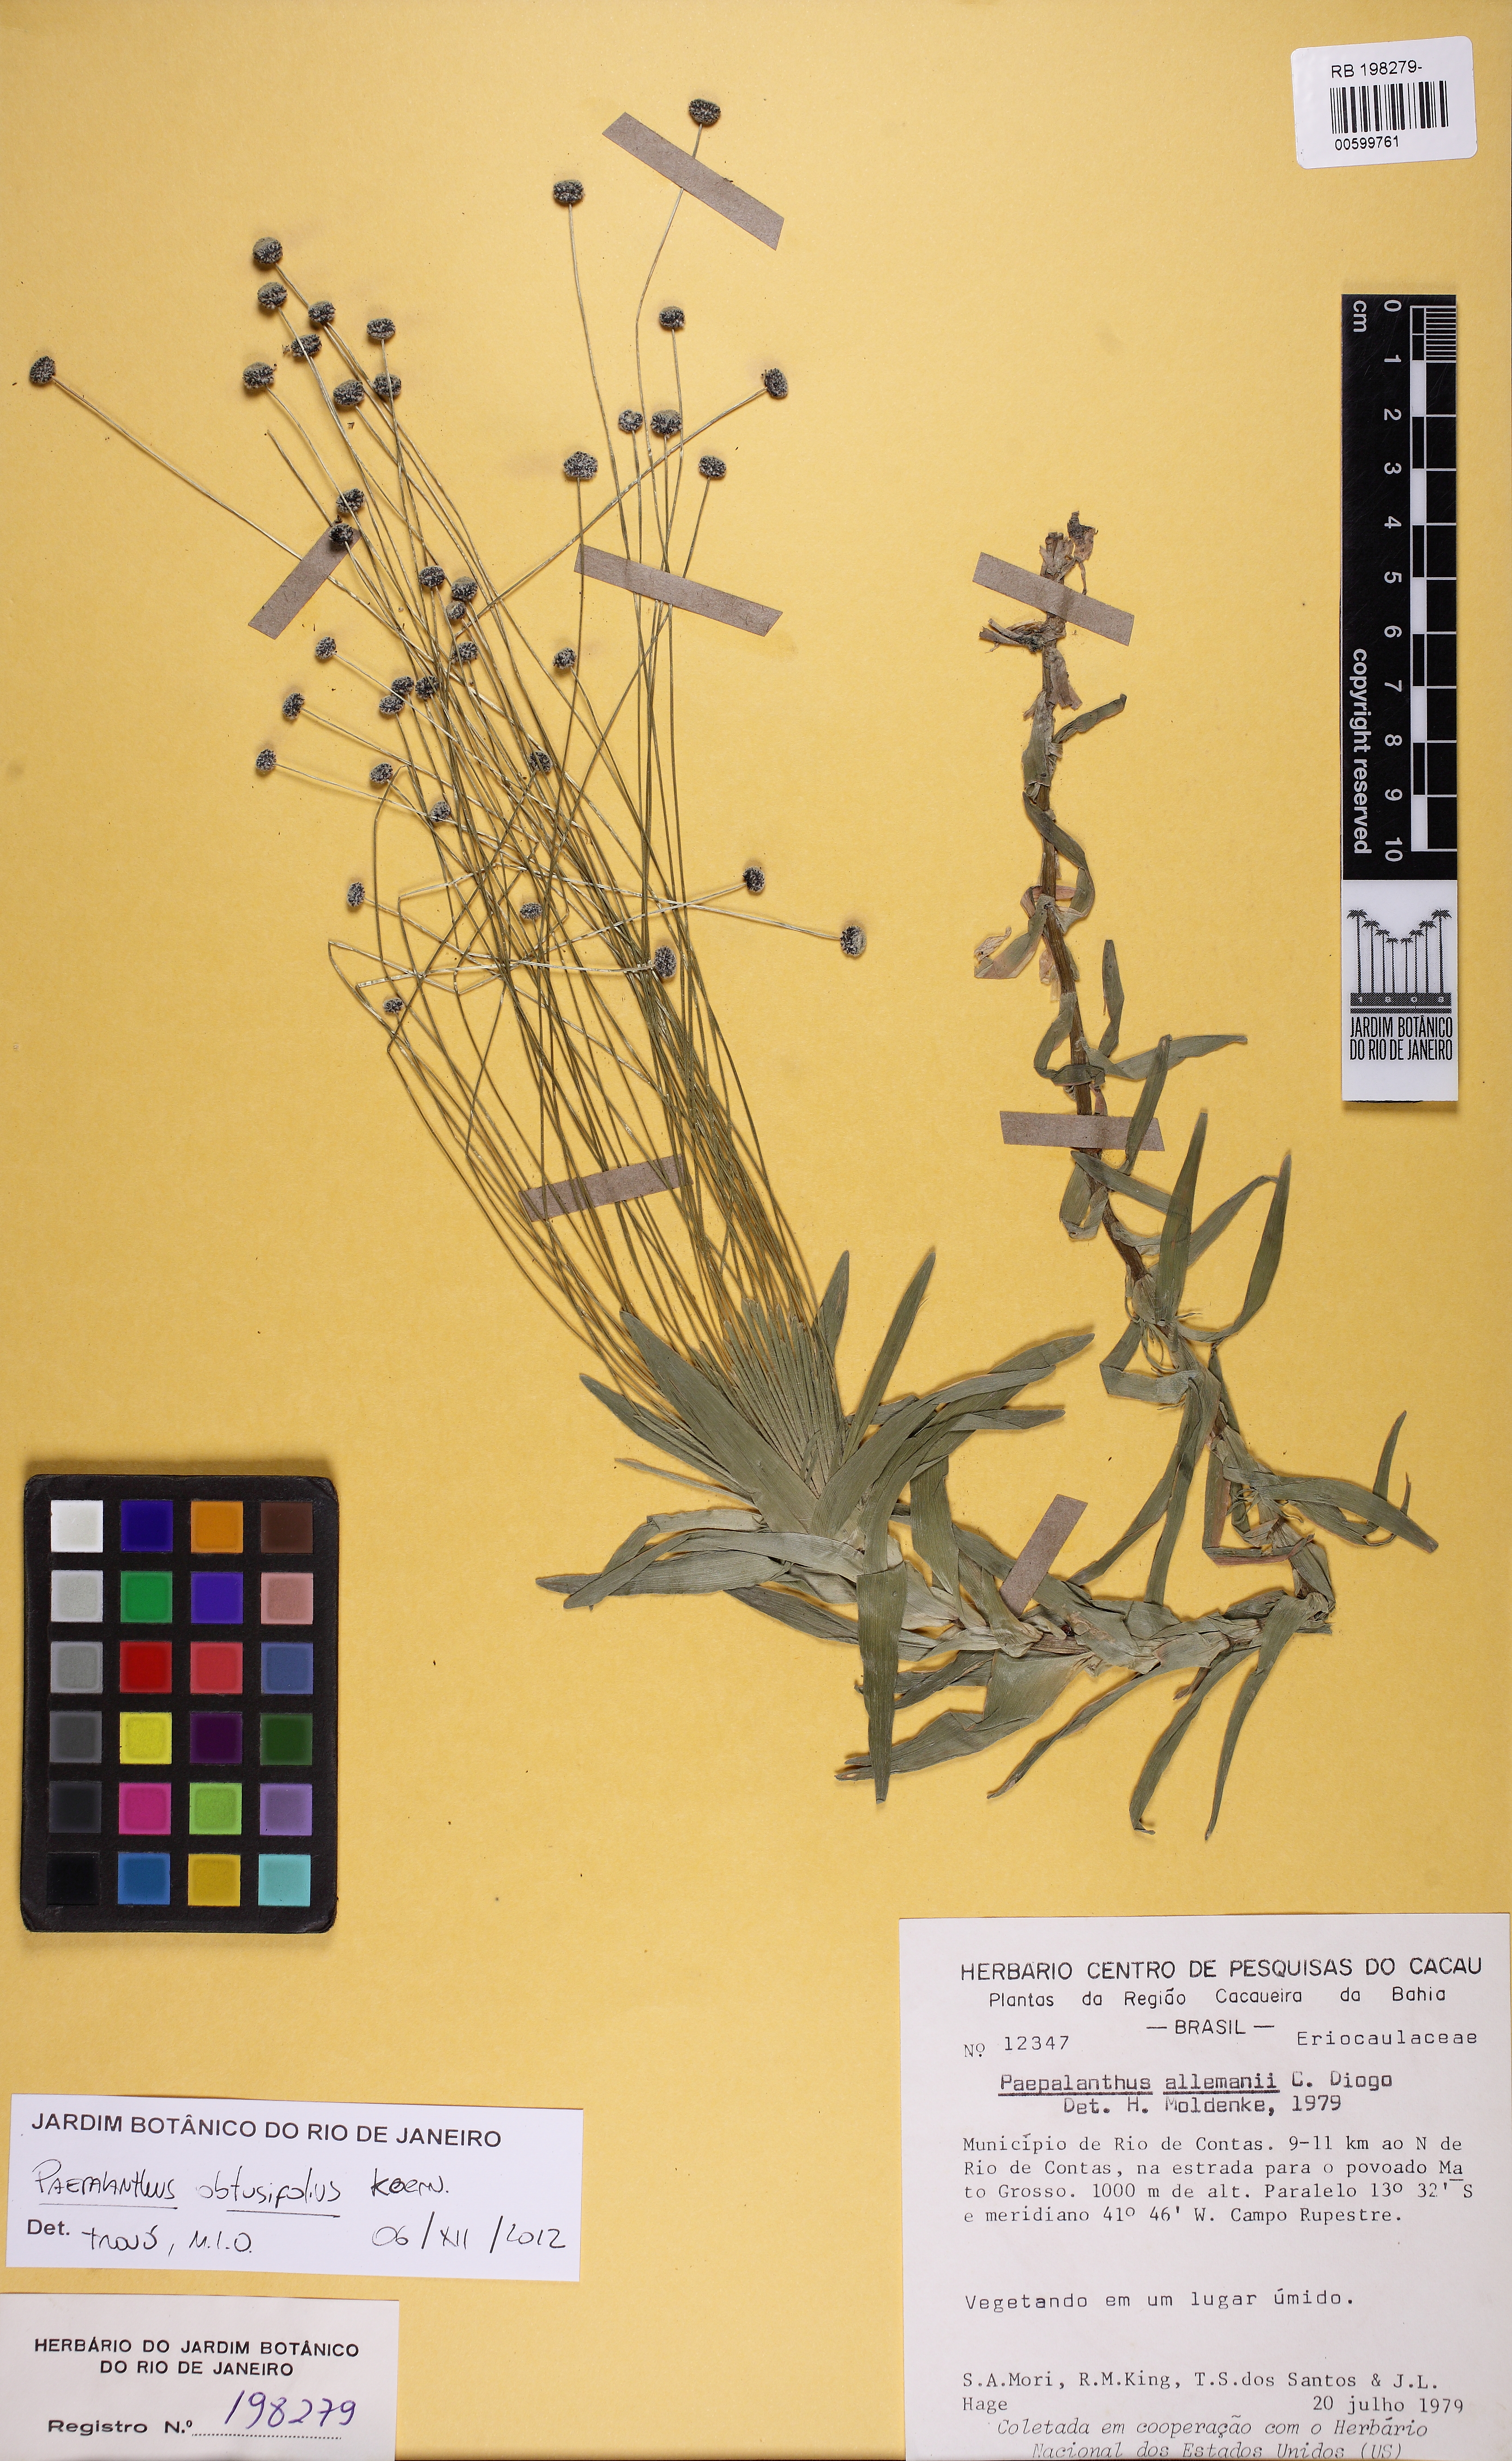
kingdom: Plantae
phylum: Tracheophyta
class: Liliopsida
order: Poales
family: Eriocaulaceae
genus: Paepalanthus
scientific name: Paepalanthus obtusifolius
